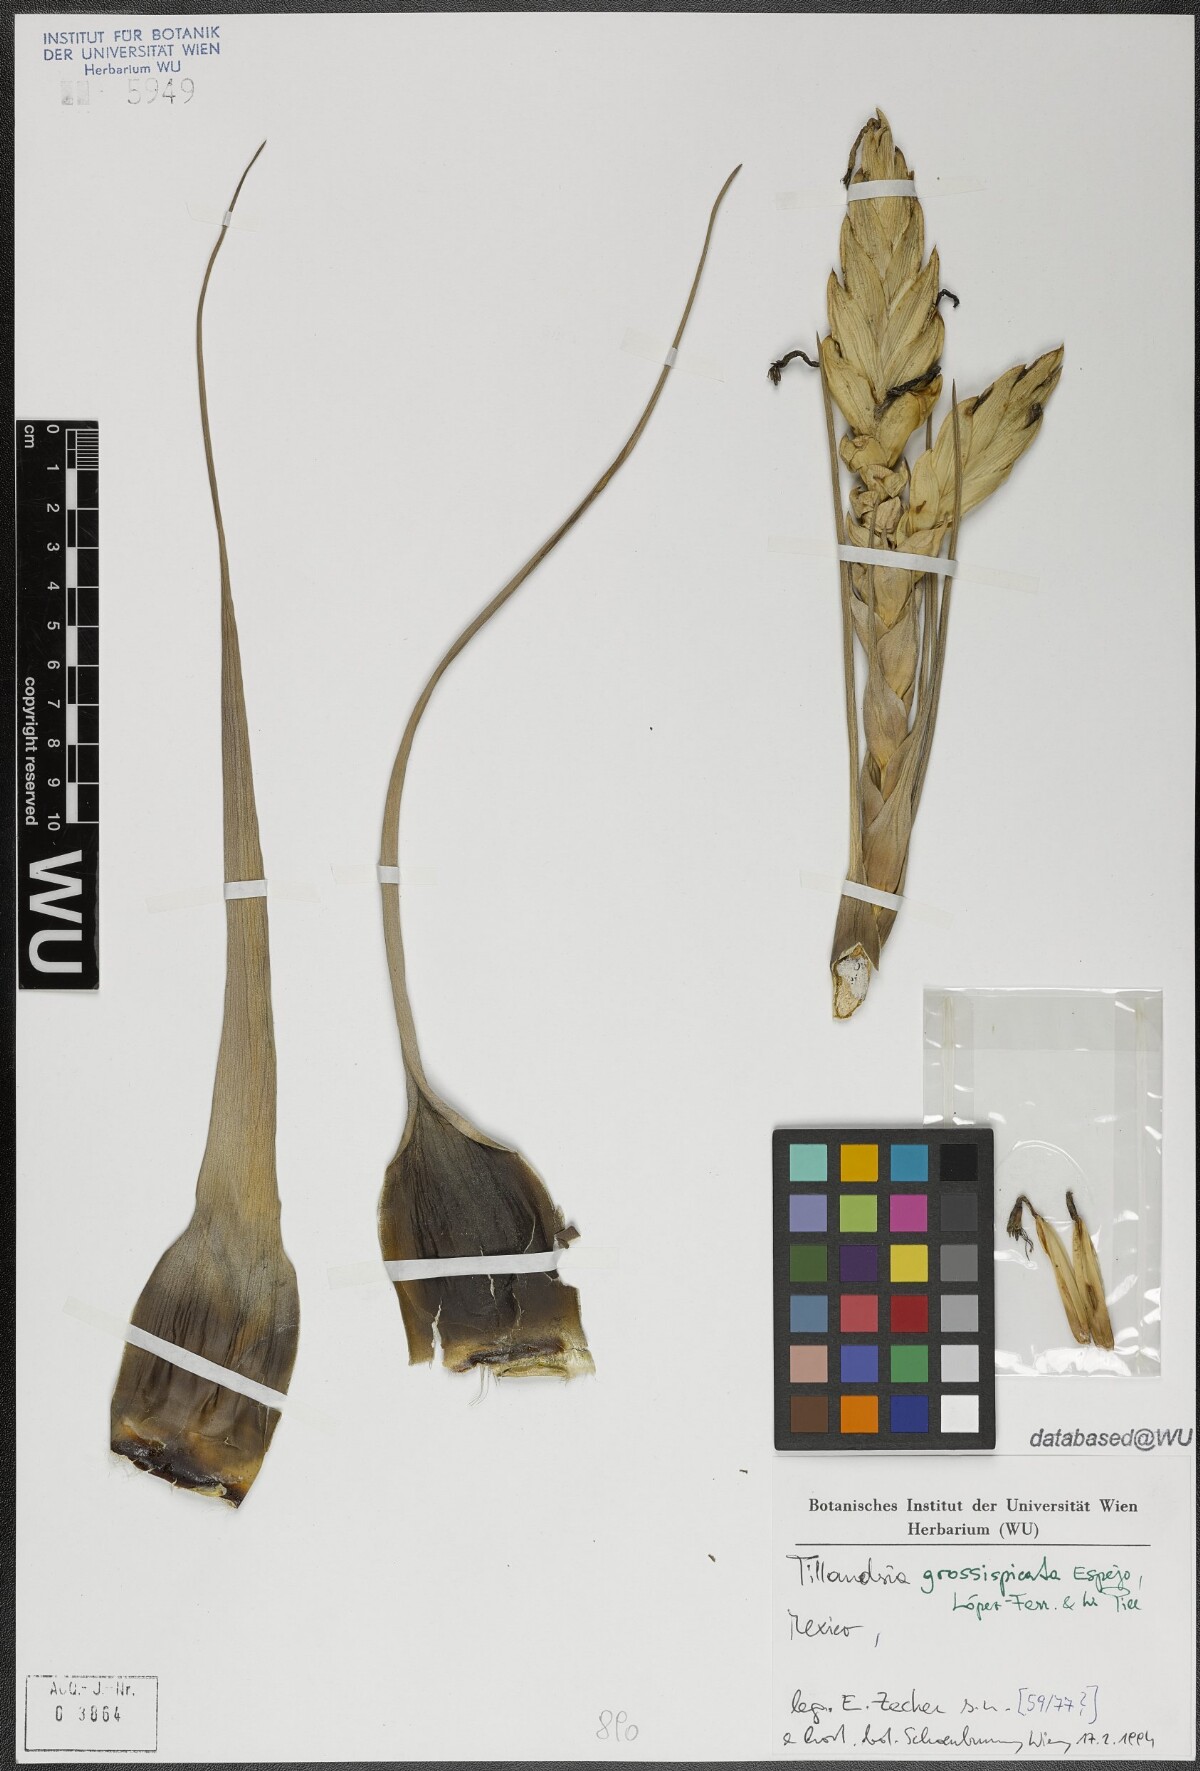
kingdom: Plantae
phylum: Tracheophyta
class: Liliopsida
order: Poales
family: Bromeliaceae
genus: Tillandsia
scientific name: Tillandsia grossispicata
